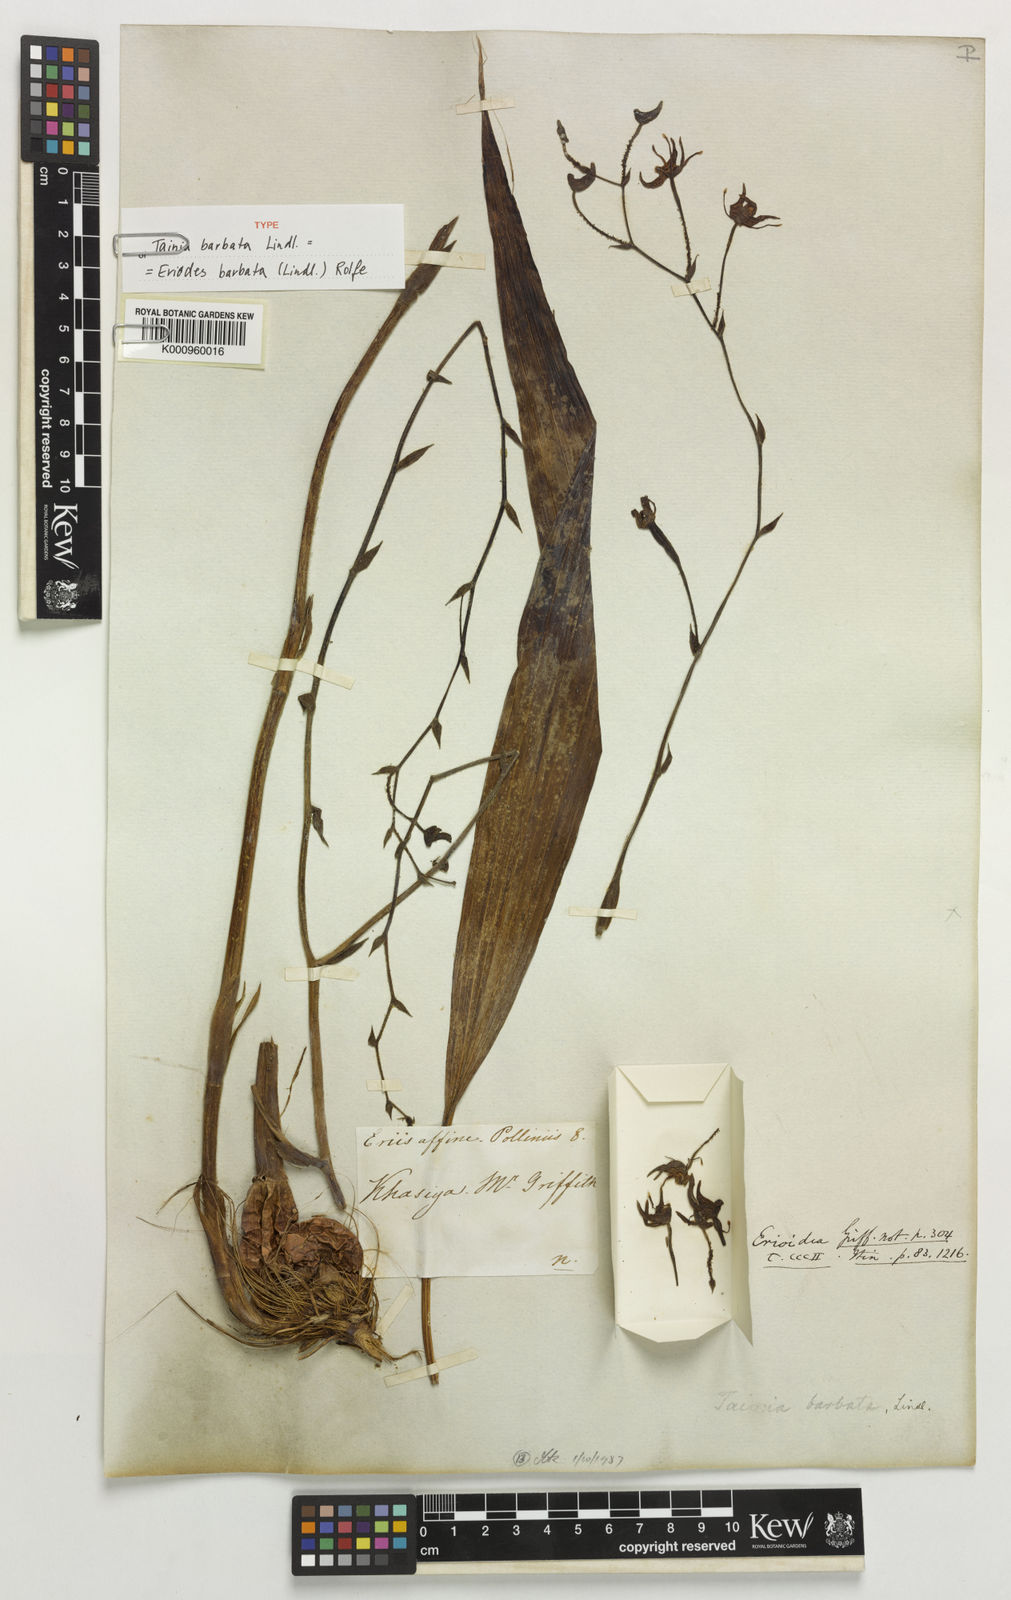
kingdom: Plantae
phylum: Tracheophyta
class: Liliopsida
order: Asparagales
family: Orchidaceae
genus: Eriodes
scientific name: Eriodes barbata
